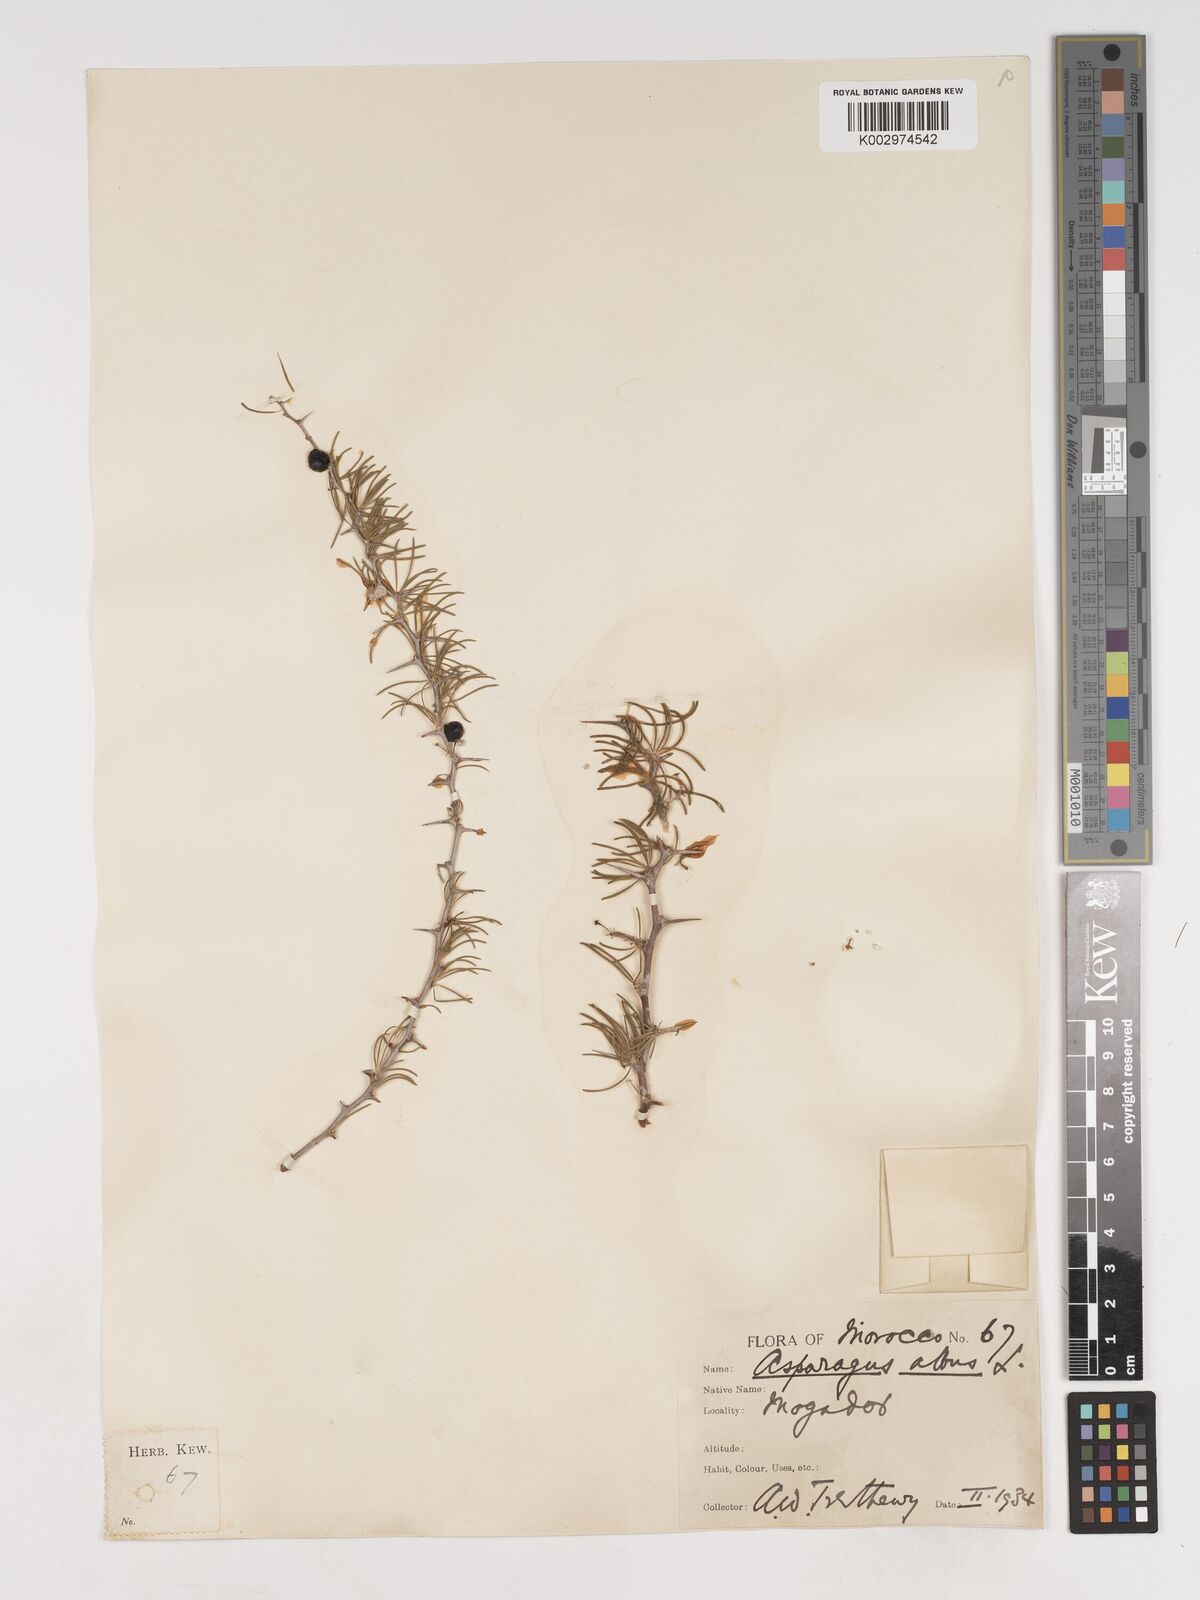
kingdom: Plantae
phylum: Tracheophyta
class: Liliopsida
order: Asparagales
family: Asparagaceae
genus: Asparagus
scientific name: Asparagus albus
